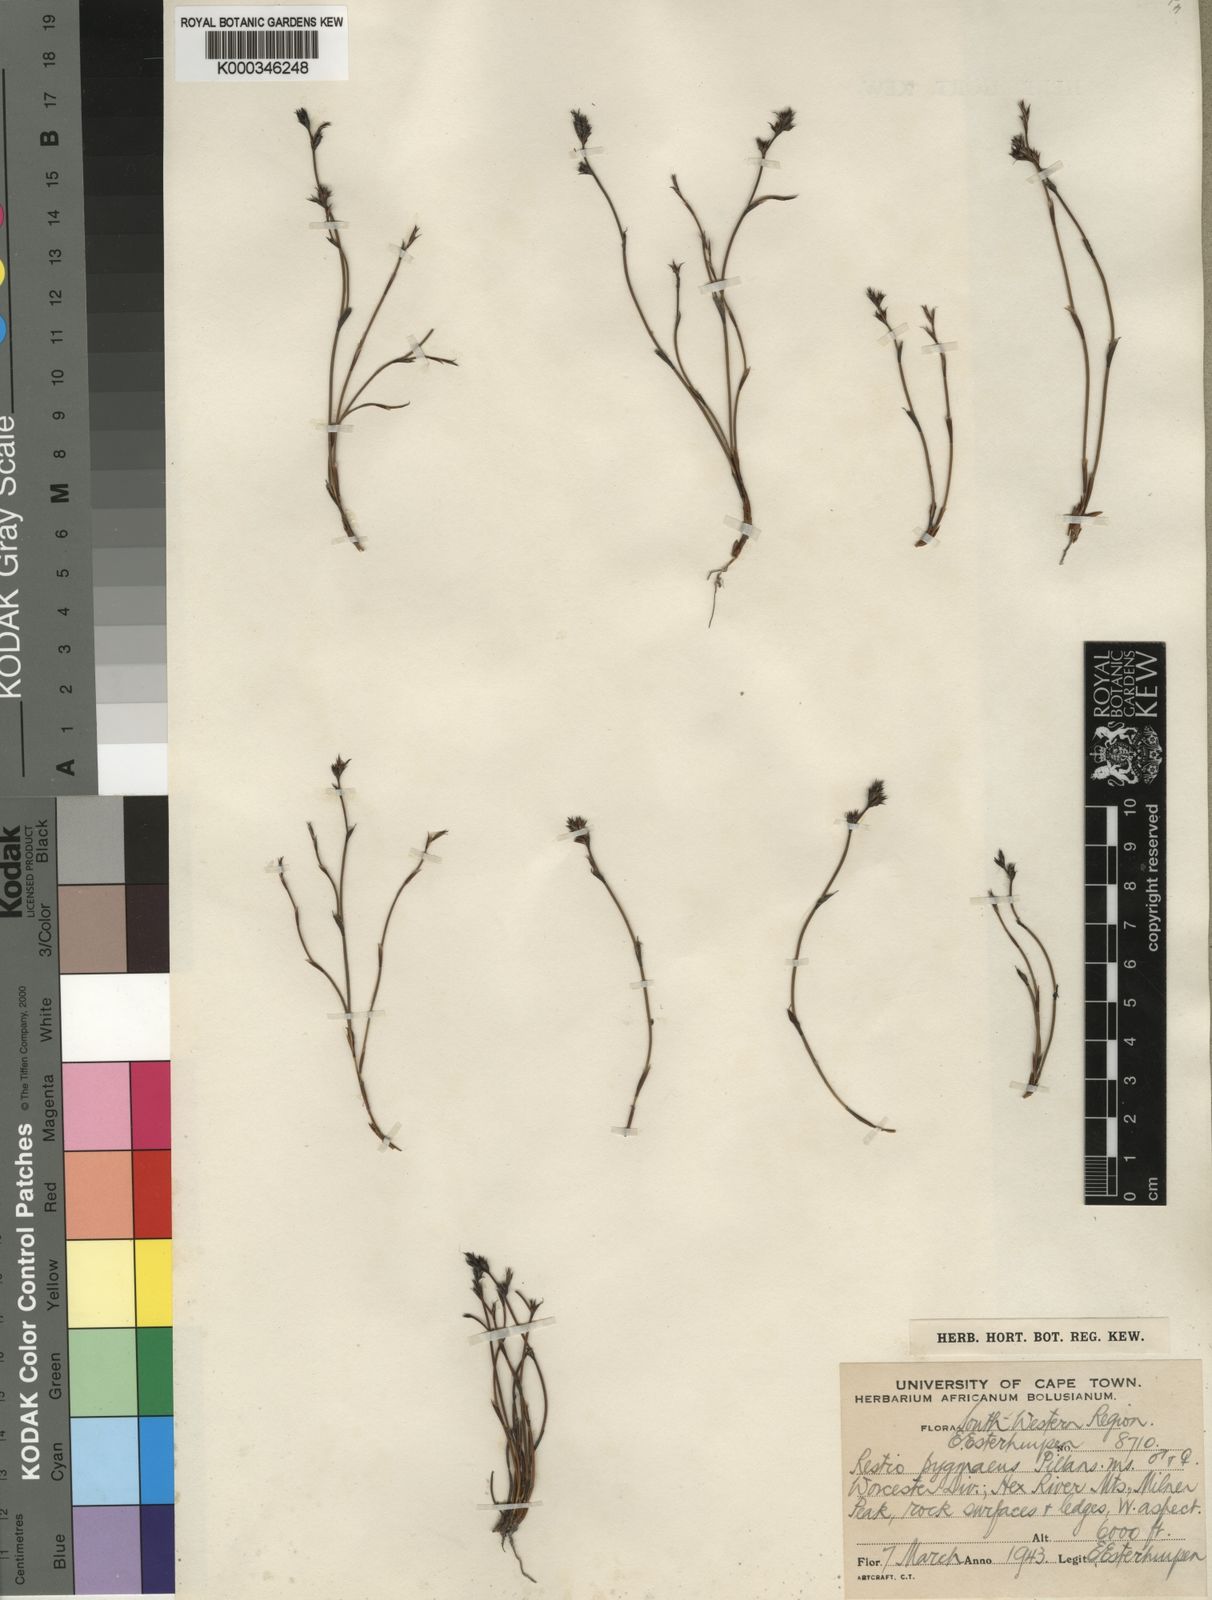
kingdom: Plantae
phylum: Tracheophyta
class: Liliopsida
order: Poales
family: Restionaceae
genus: Restio
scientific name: Restio pygmaeus
